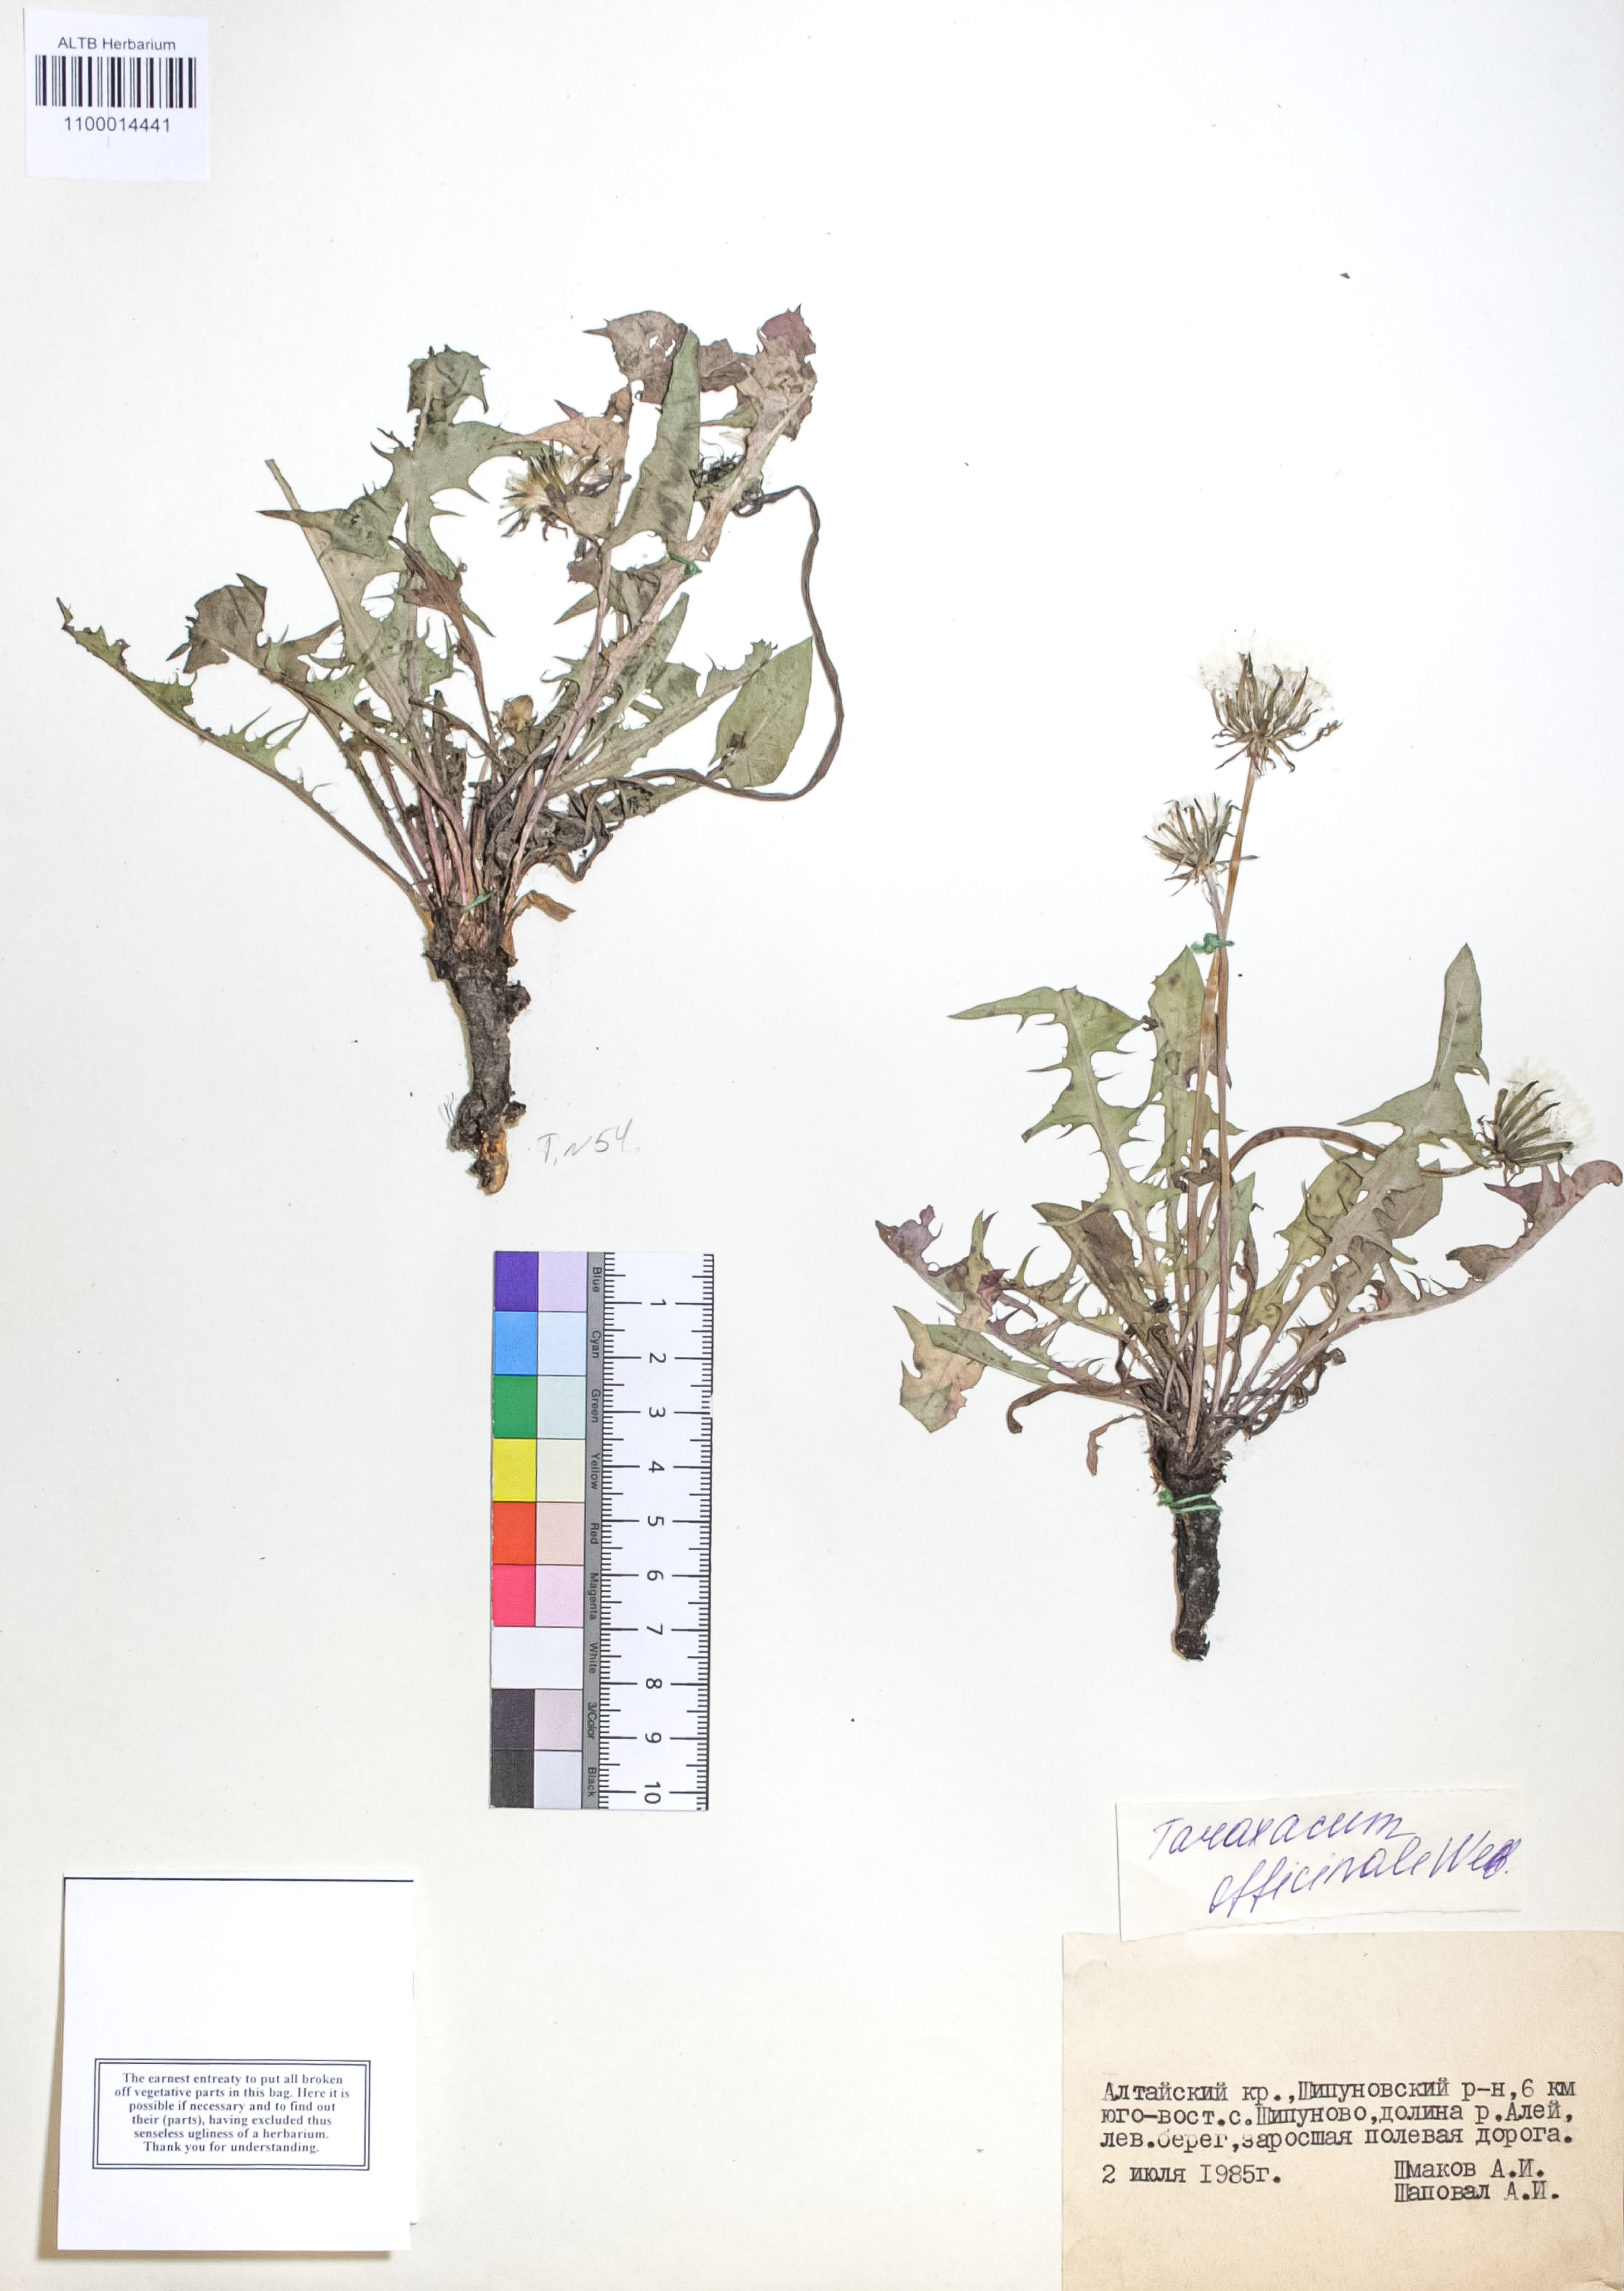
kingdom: Plantae
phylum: Tracheophyta
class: Magnoliopsida
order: Asterales
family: Asteraceae
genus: Taraxacum
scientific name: Taraxacum officinale
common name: Common dandelion
